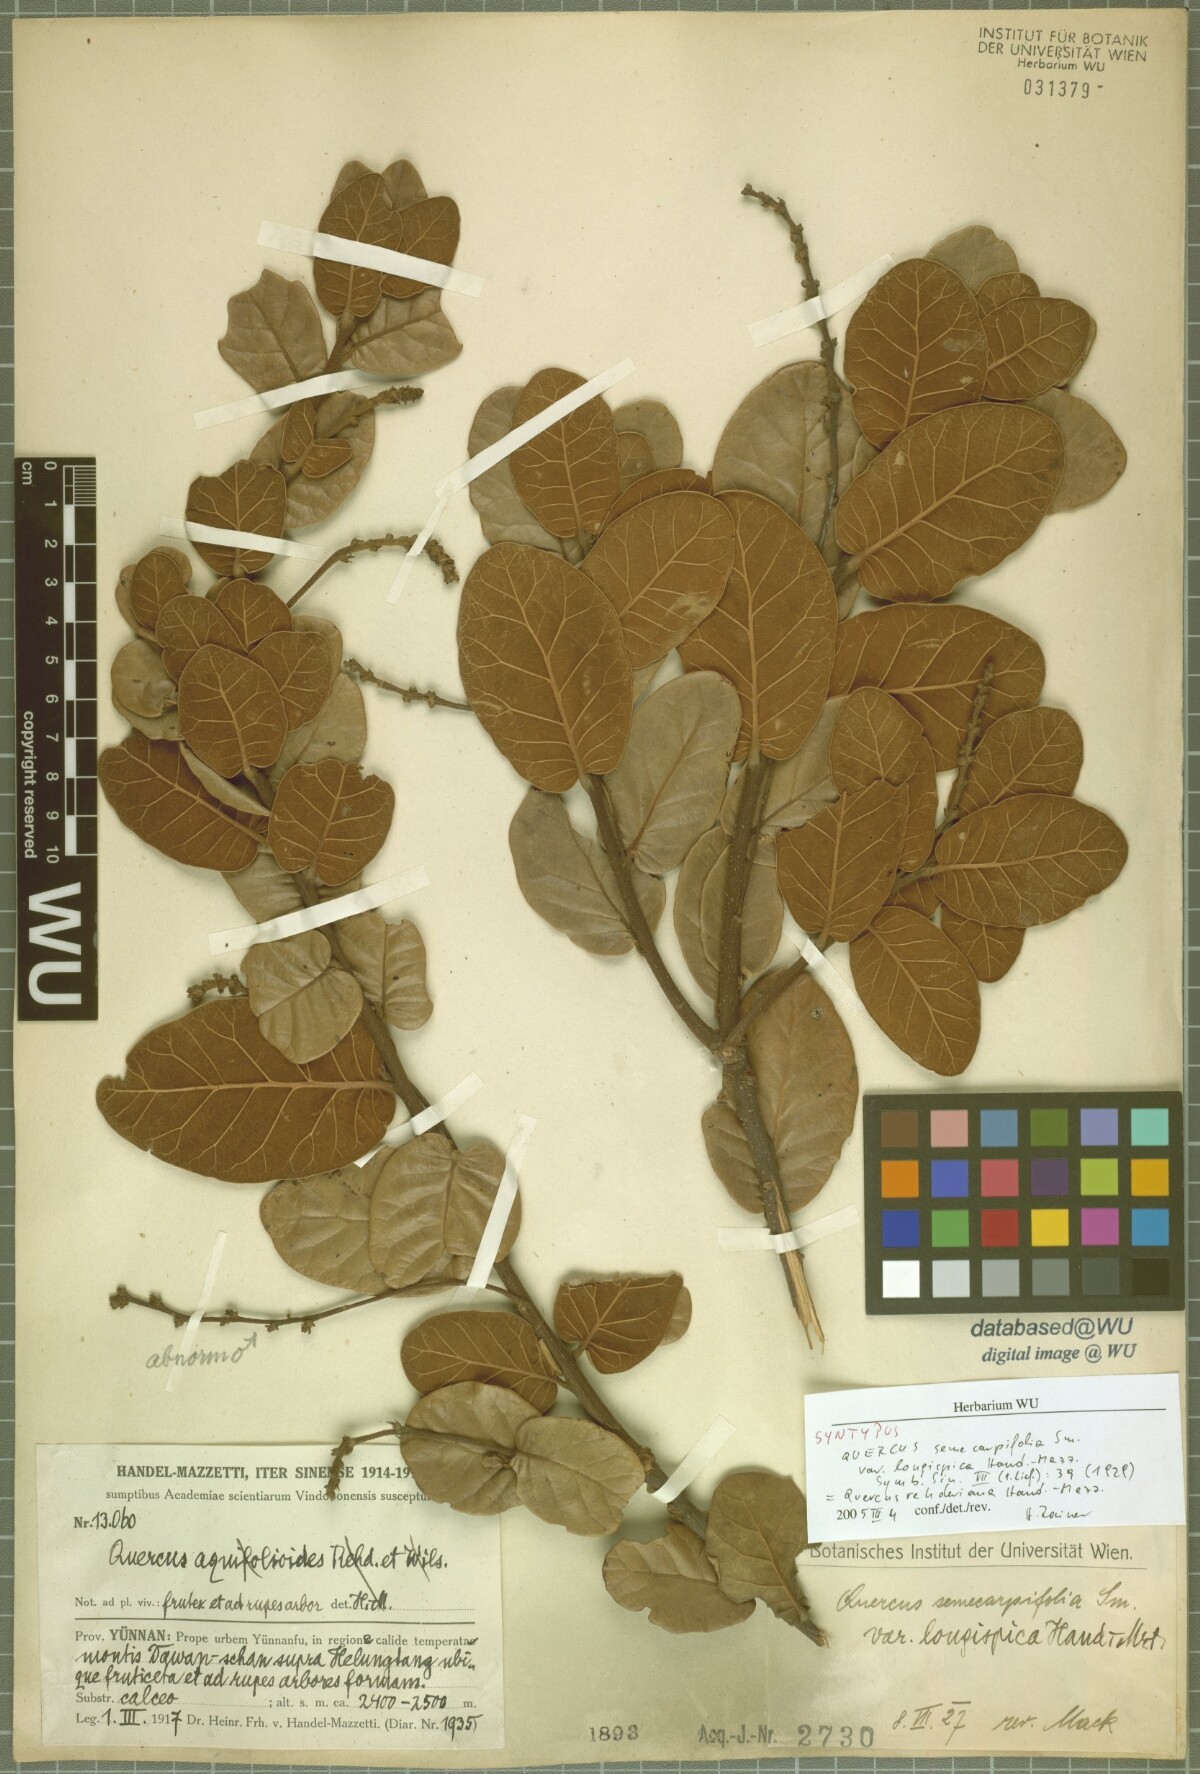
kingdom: Plantae
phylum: Tracheophyta
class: Magnoliopsida
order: Fagales
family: Fagaceae
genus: Quercus
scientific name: Quercus longispica
